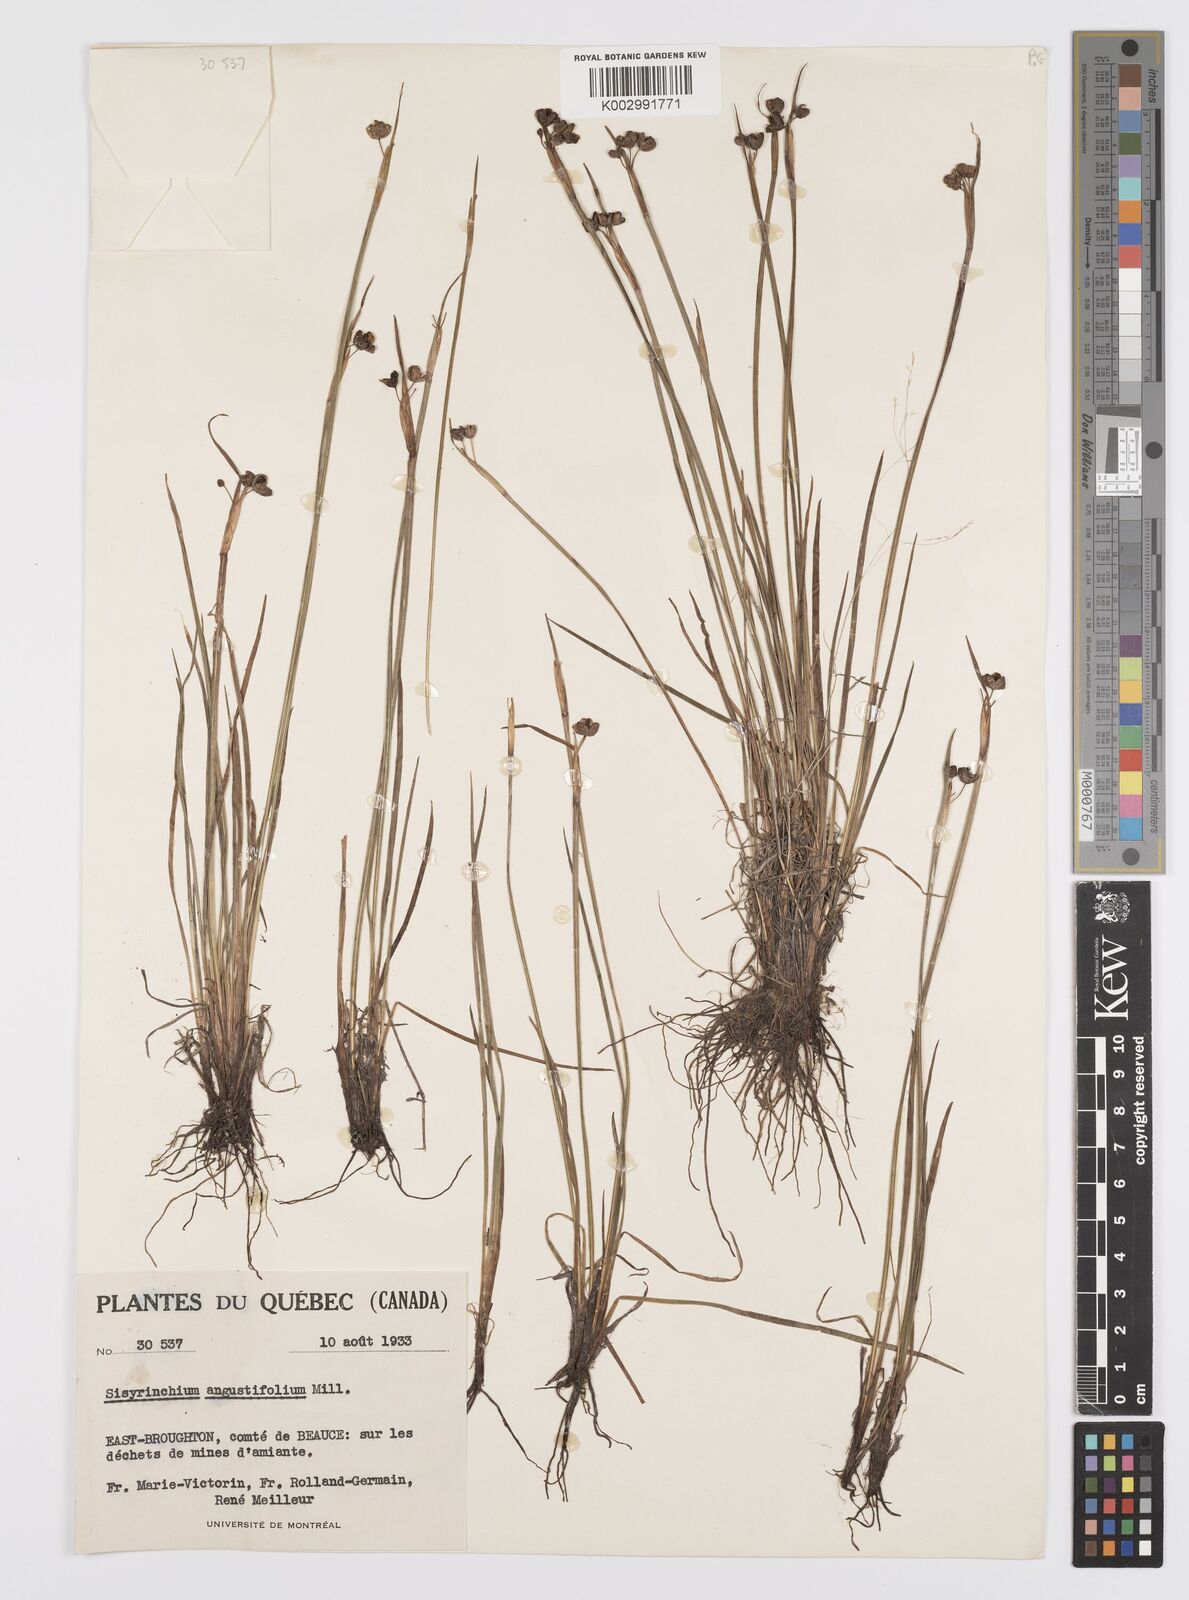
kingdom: Plantae
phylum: Tracheophyta
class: Liliopsida
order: Asparagales
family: Iridaceae
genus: Sisyrinchium
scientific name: Sisyrinchium angustifolium
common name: Narrow-leaf blue-eyed-grass
